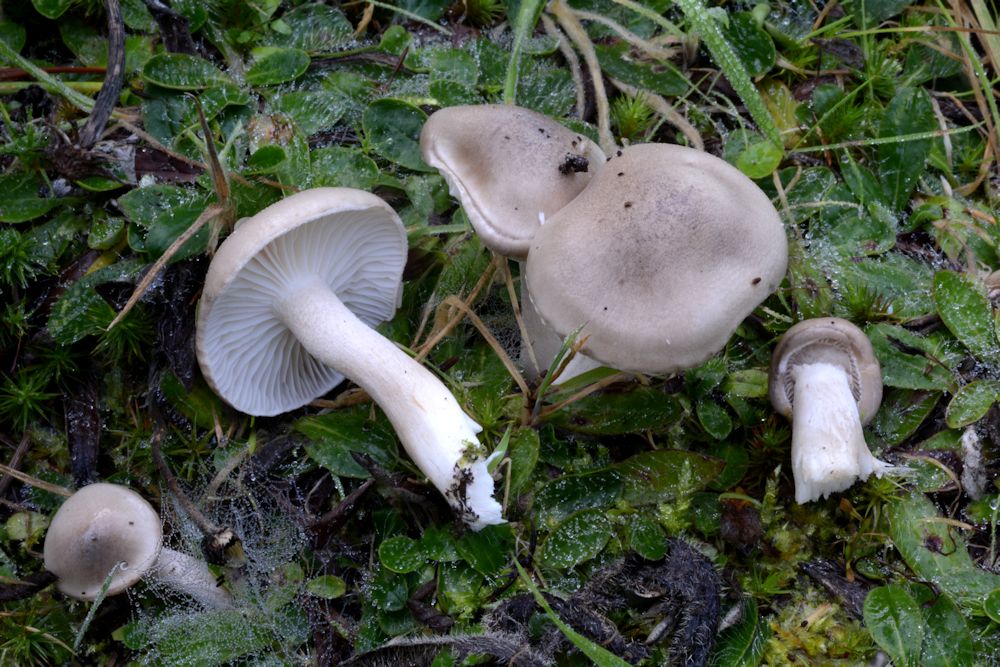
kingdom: Fungi
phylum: Basidiomycota
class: Agaricomycetes
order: Agaricales
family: Hygrophoraceae
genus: Hygrophorus
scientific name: Hygrophorus agathosmus
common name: vellugtende sneglehat
